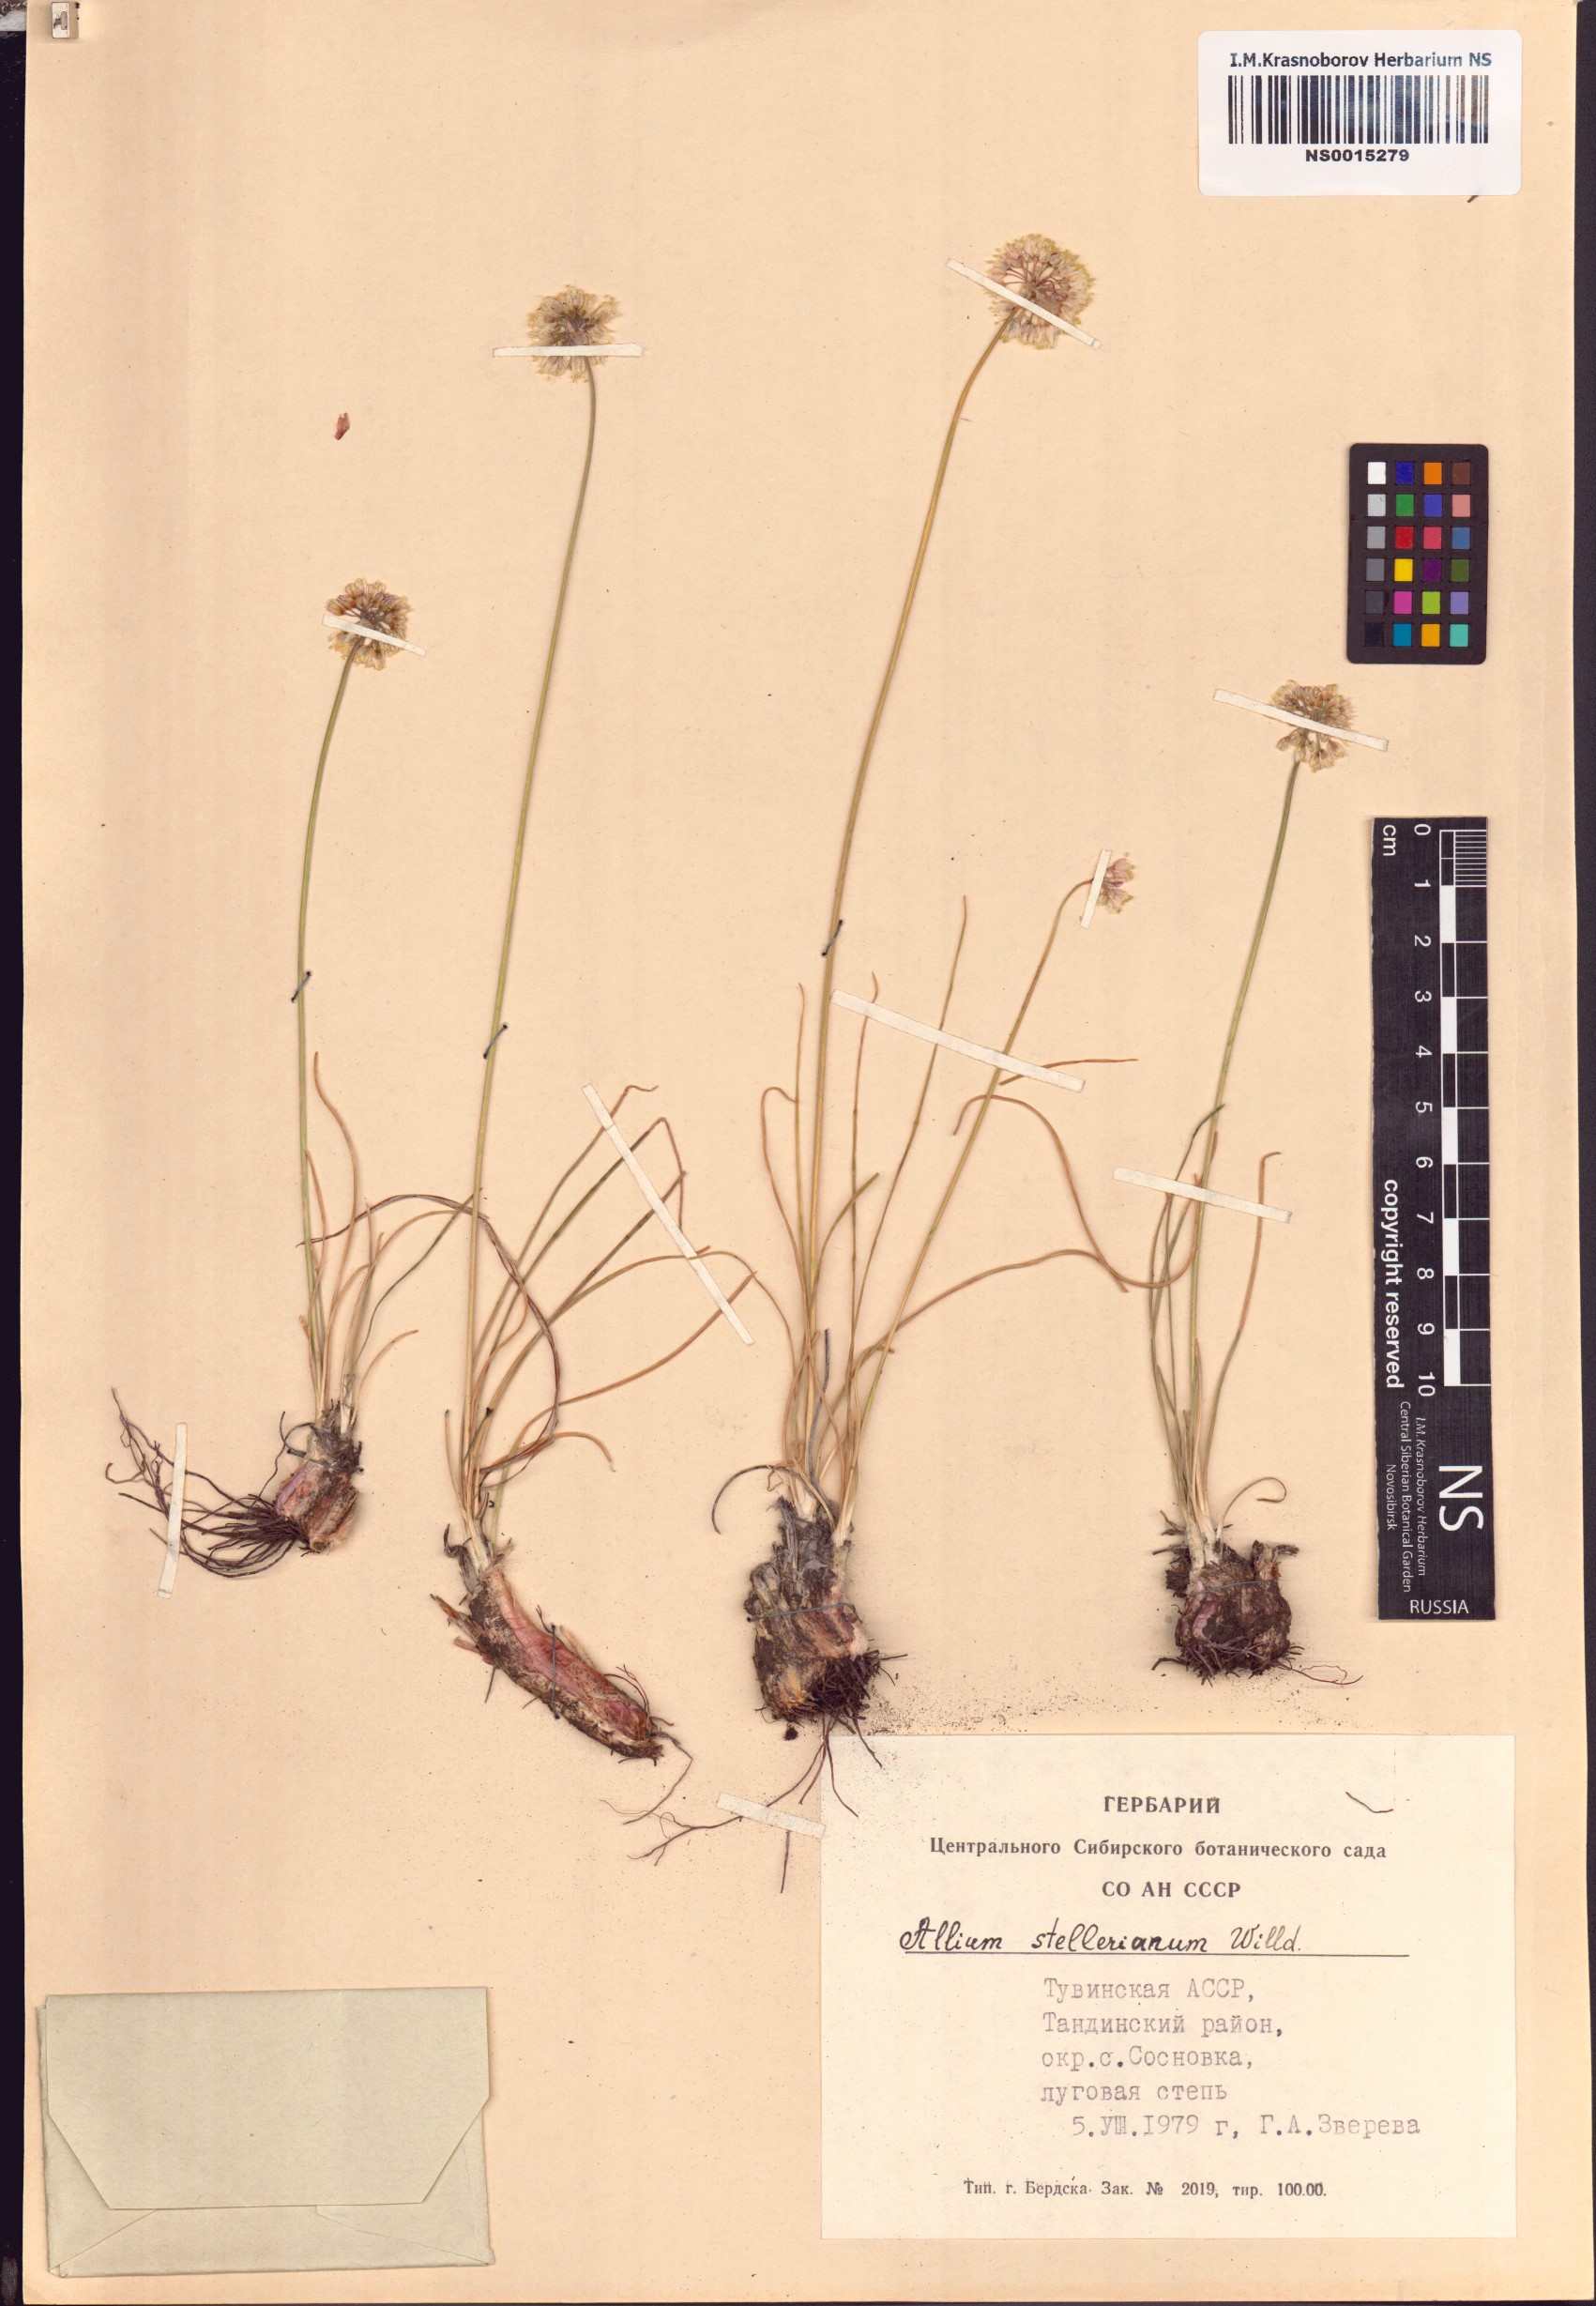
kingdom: Plantae
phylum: Tracheophyta
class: Liliopsida
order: Asparagales
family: Amaryllidaceae
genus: Allium
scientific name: Allium stellerianum
